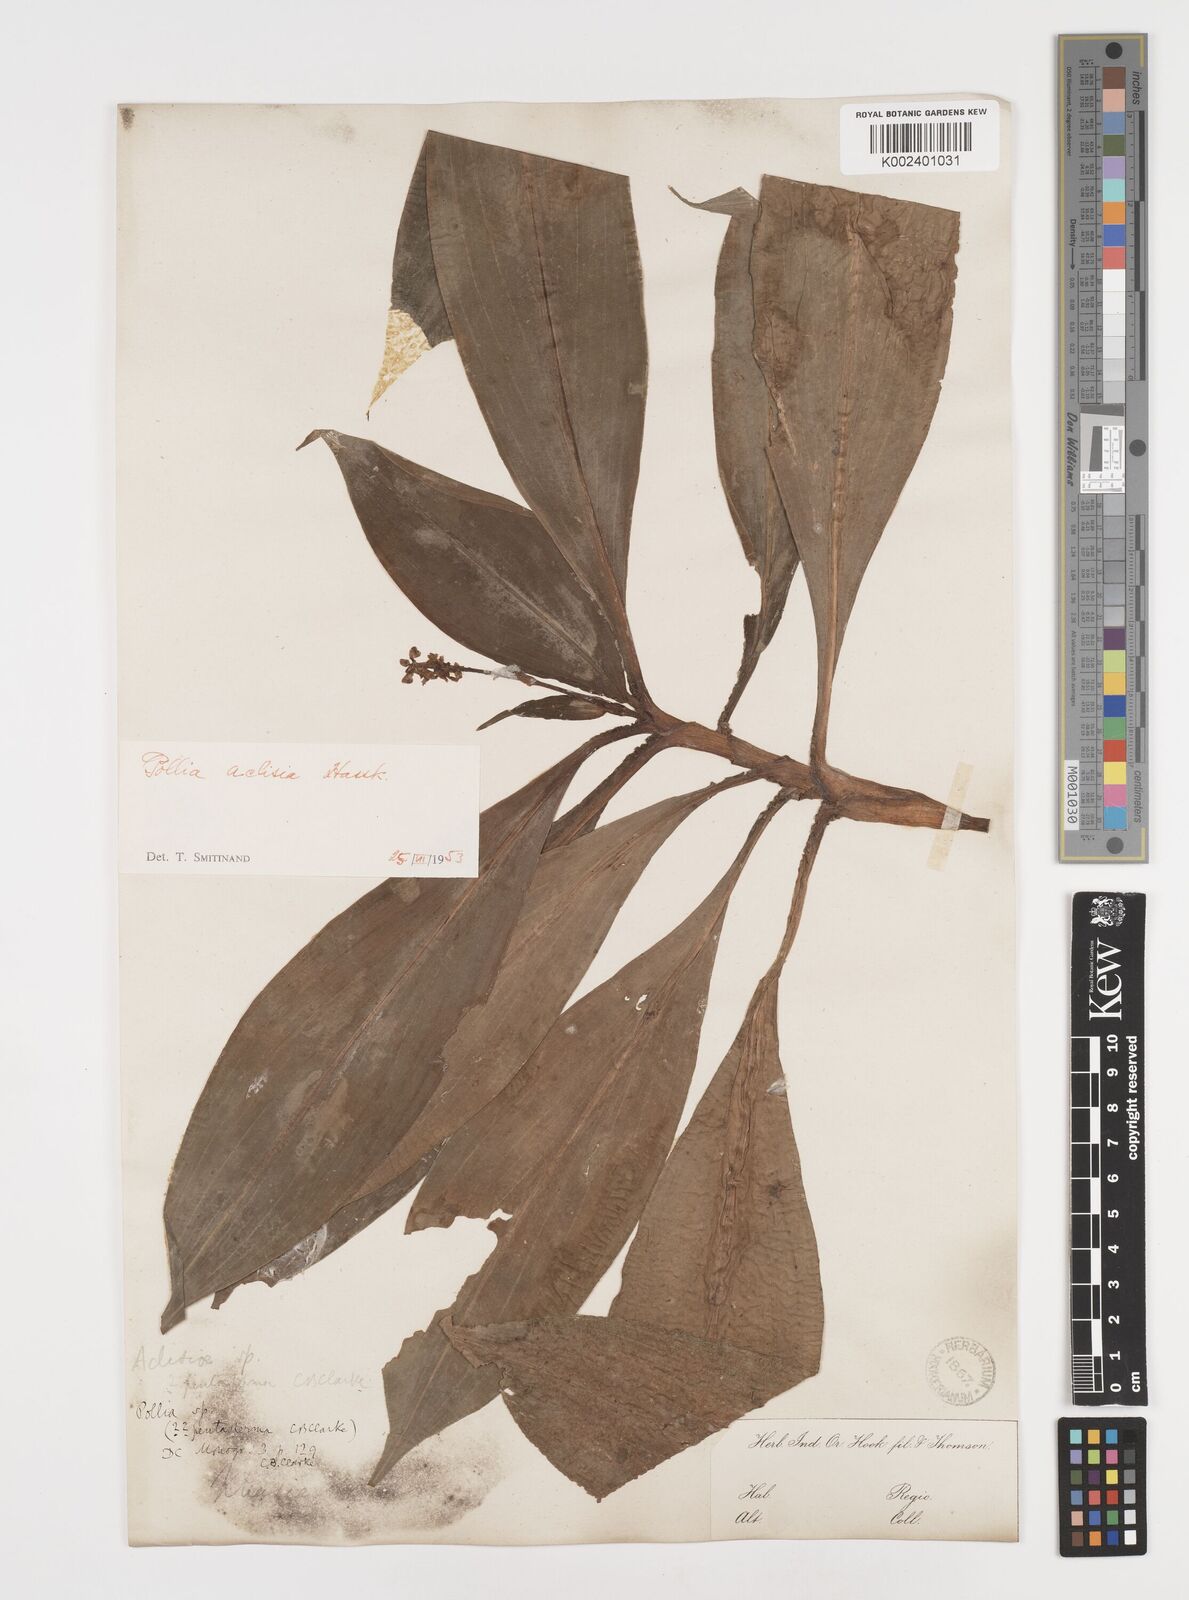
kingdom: Plantae
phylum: Tracheophyta
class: Liliopsida
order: Commelinales
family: Commelinaceae
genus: Pollia
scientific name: Pollia hasskarlii
